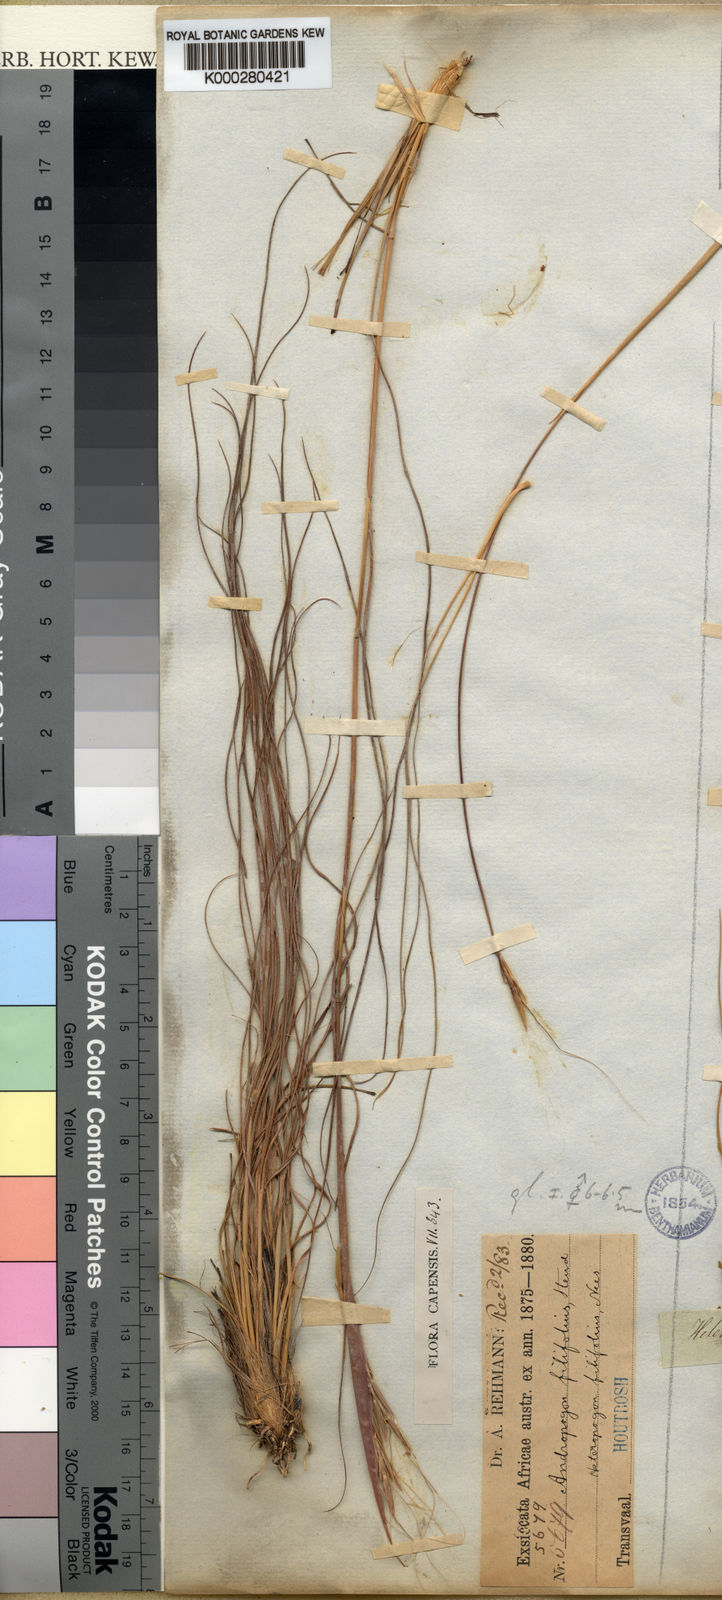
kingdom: Plantae
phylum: Tracheophyta
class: Liliopsida
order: Poales
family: Poaceae
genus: Diheteropogon
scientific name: Diheteropogon filifolius
